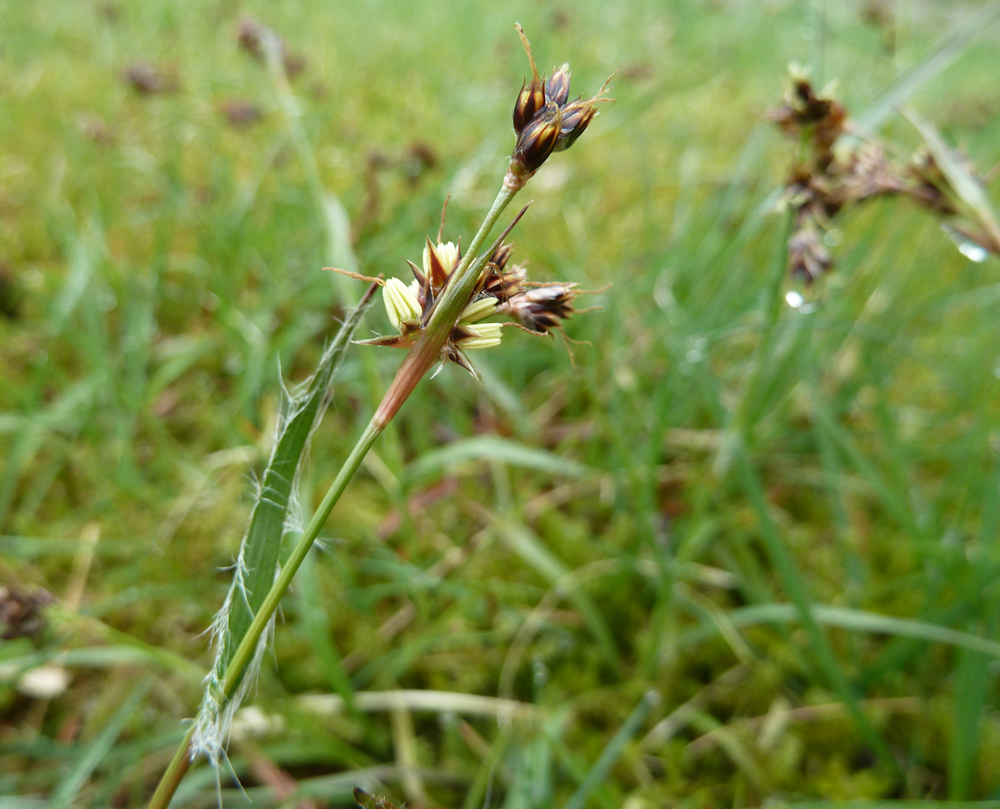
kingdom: Plantae
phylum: Tracheophyta
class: Liliopsida
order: Poales
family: Juncaceae
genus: Luzula
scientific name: Luzula campestris
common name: Field wood-rush
